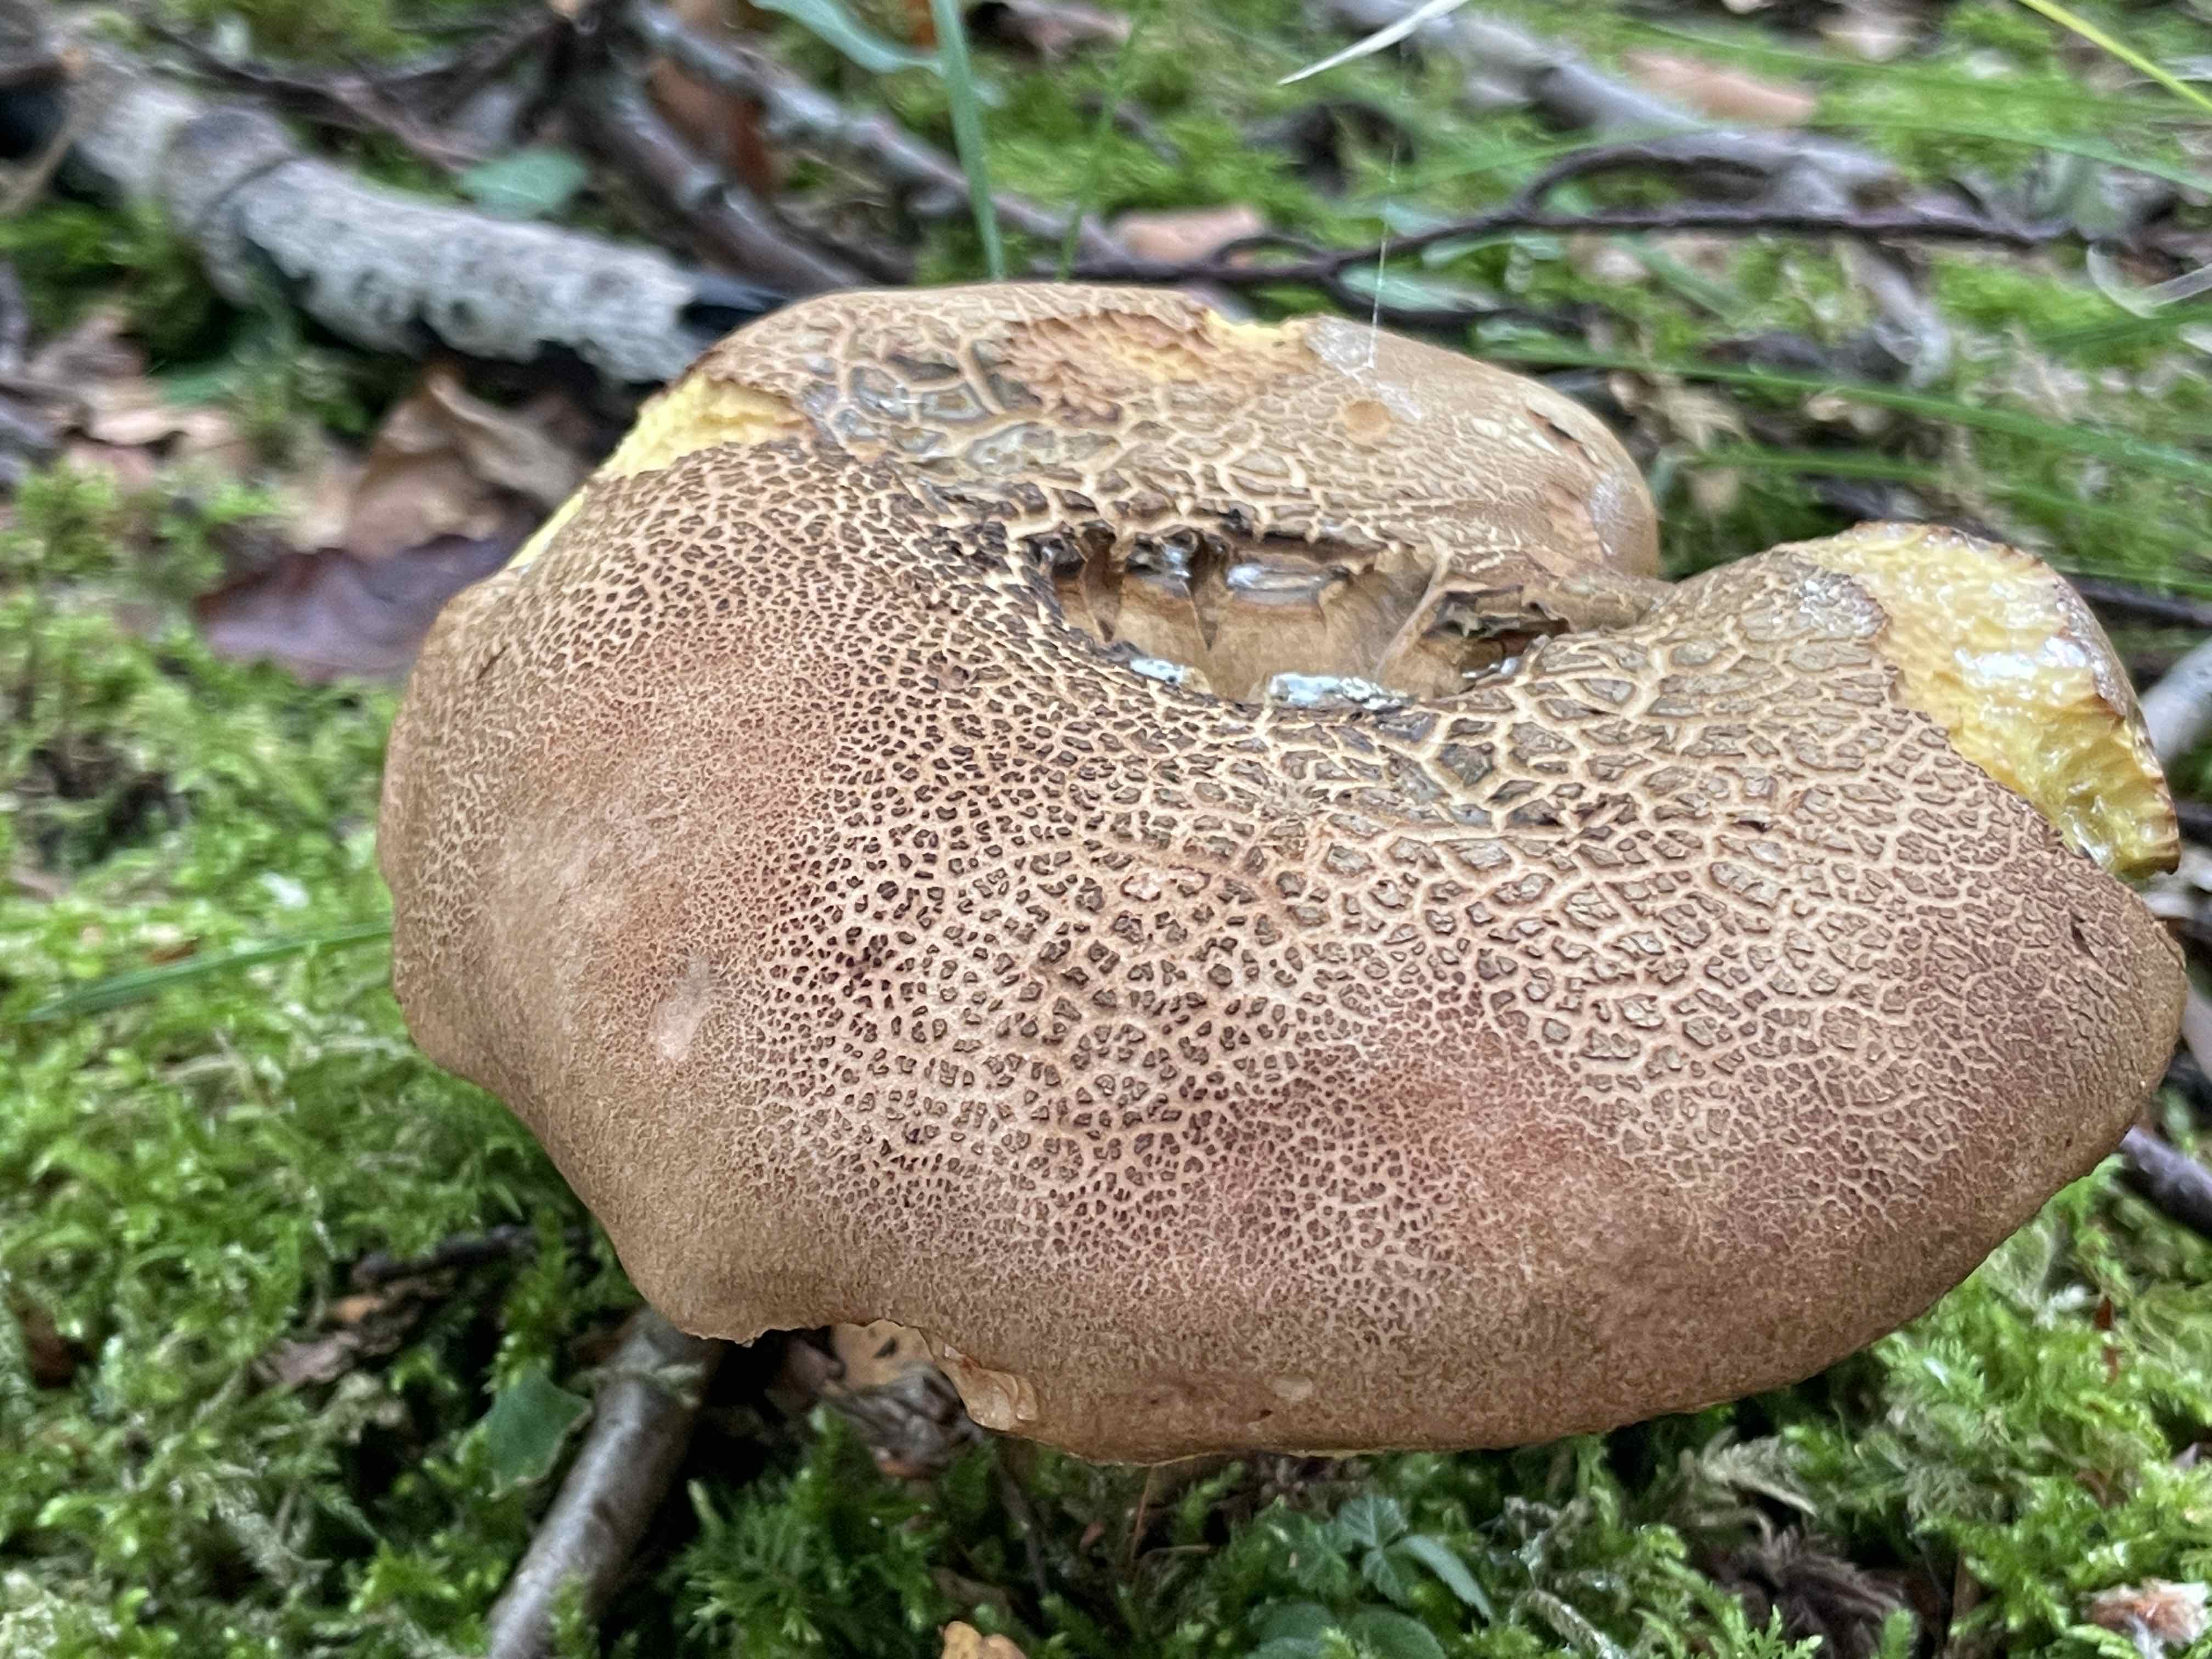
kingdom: Fungi
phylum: Basidiomycota
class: Agaricomycetes
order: Boletales
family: Boletaceae
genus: Butyriboletus
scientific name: Butyriboletus appendiculatus
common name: tenstokket rørhat
